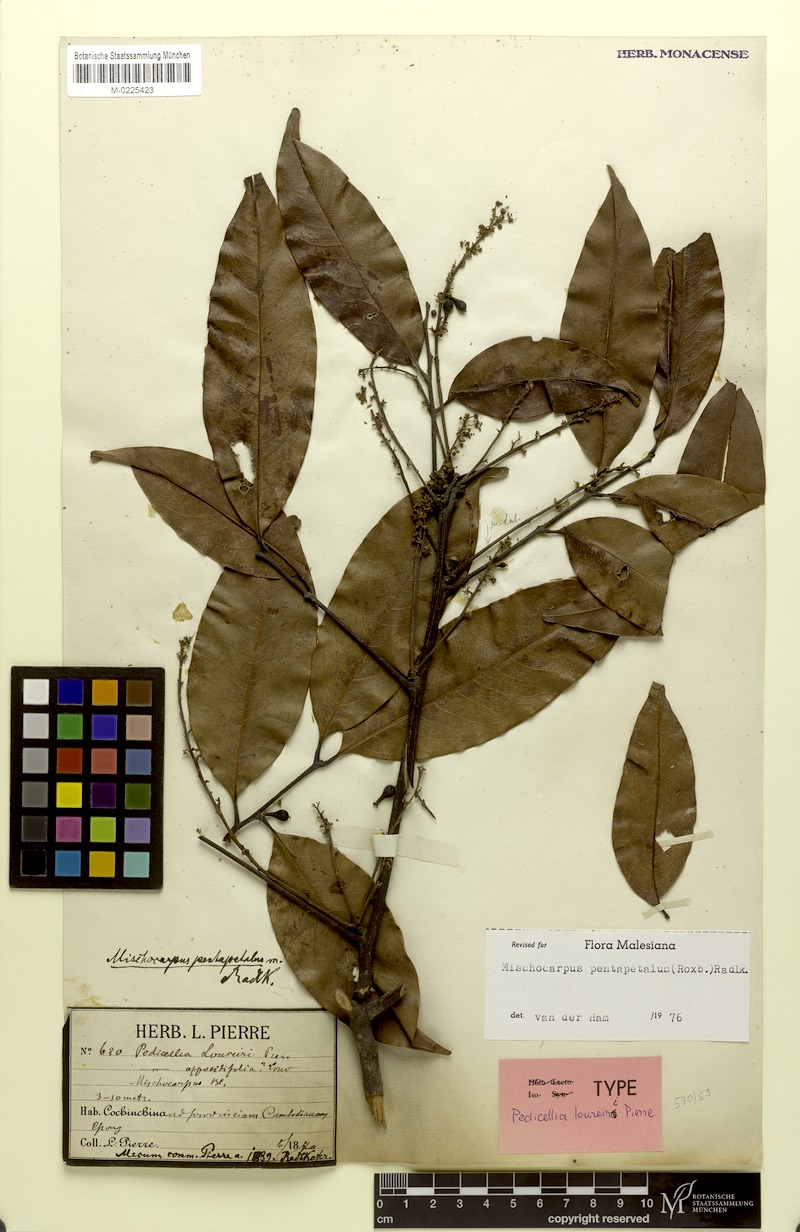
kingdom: Plantae
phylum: Tracheophyta
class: Magnoliopsida
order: Sapindales
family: Sapindaceae
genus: Mischocarpus
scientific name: Mischocarpus pentapetalus
